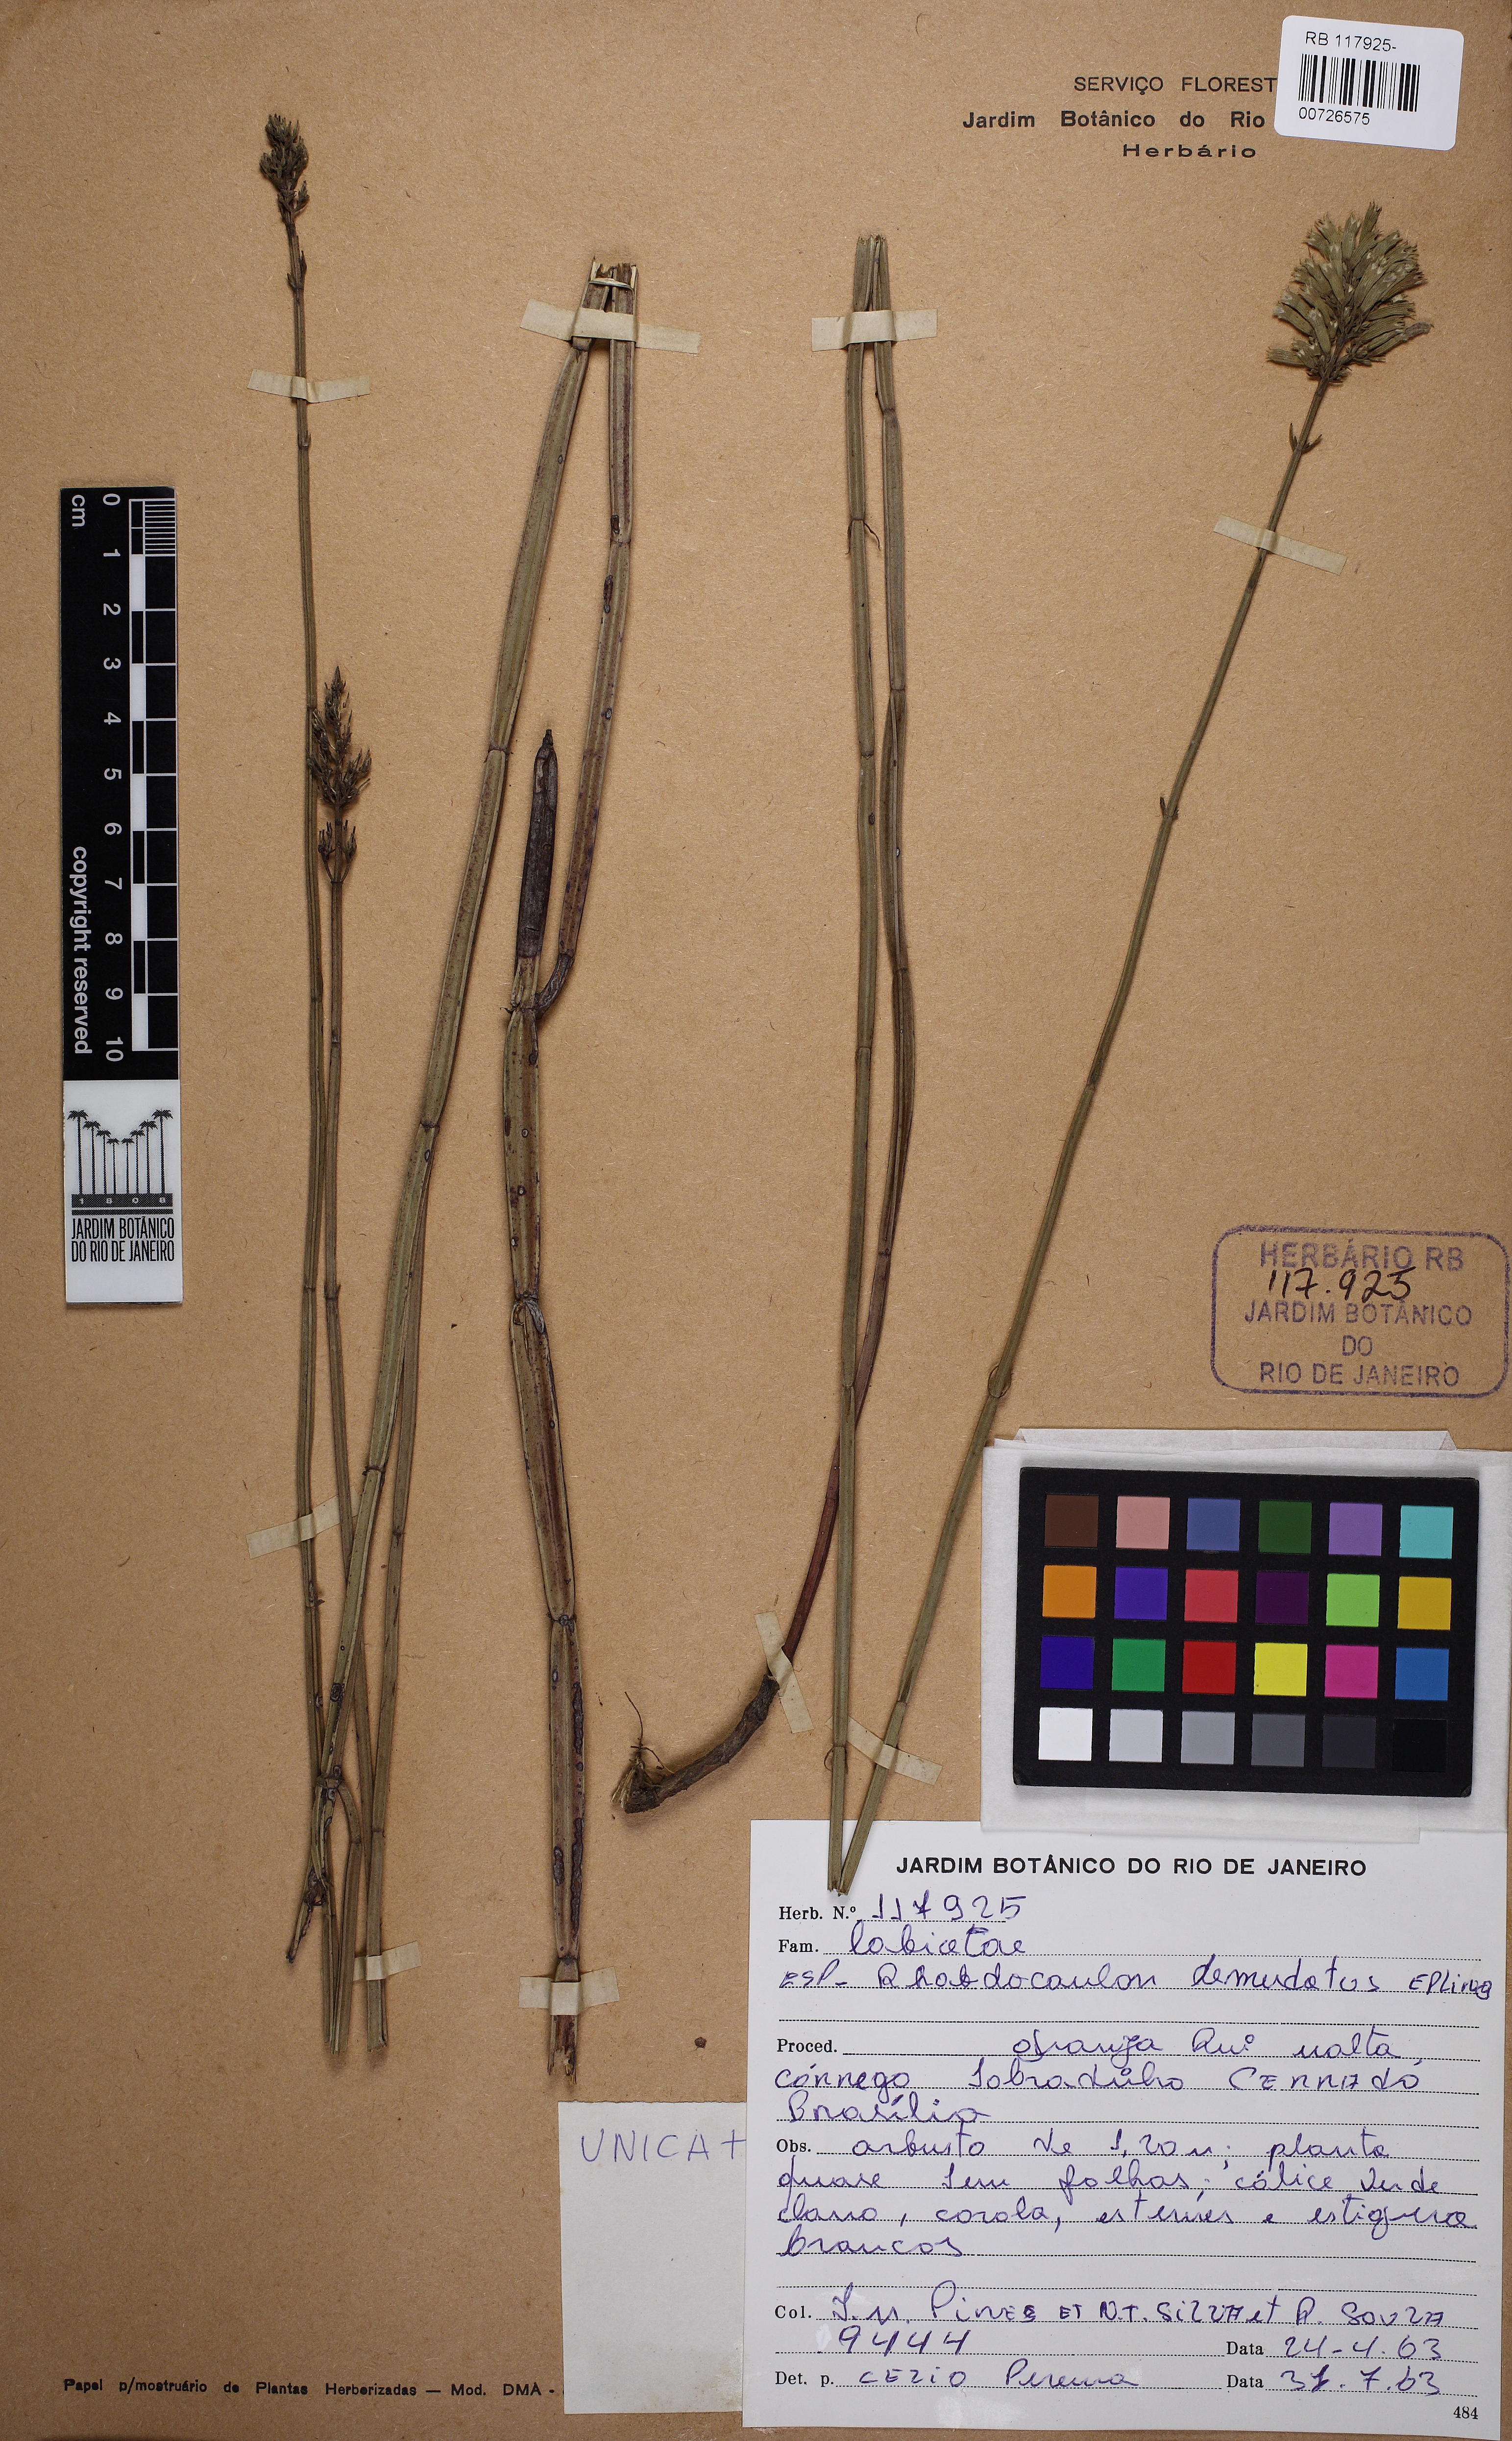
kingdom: Plantae
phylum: Tracheophyta
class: Magnoliopsida
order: Lamiales
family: Lamiaceae
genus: Rhabdocaulon
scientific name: Rhabdocaulon denudatum
